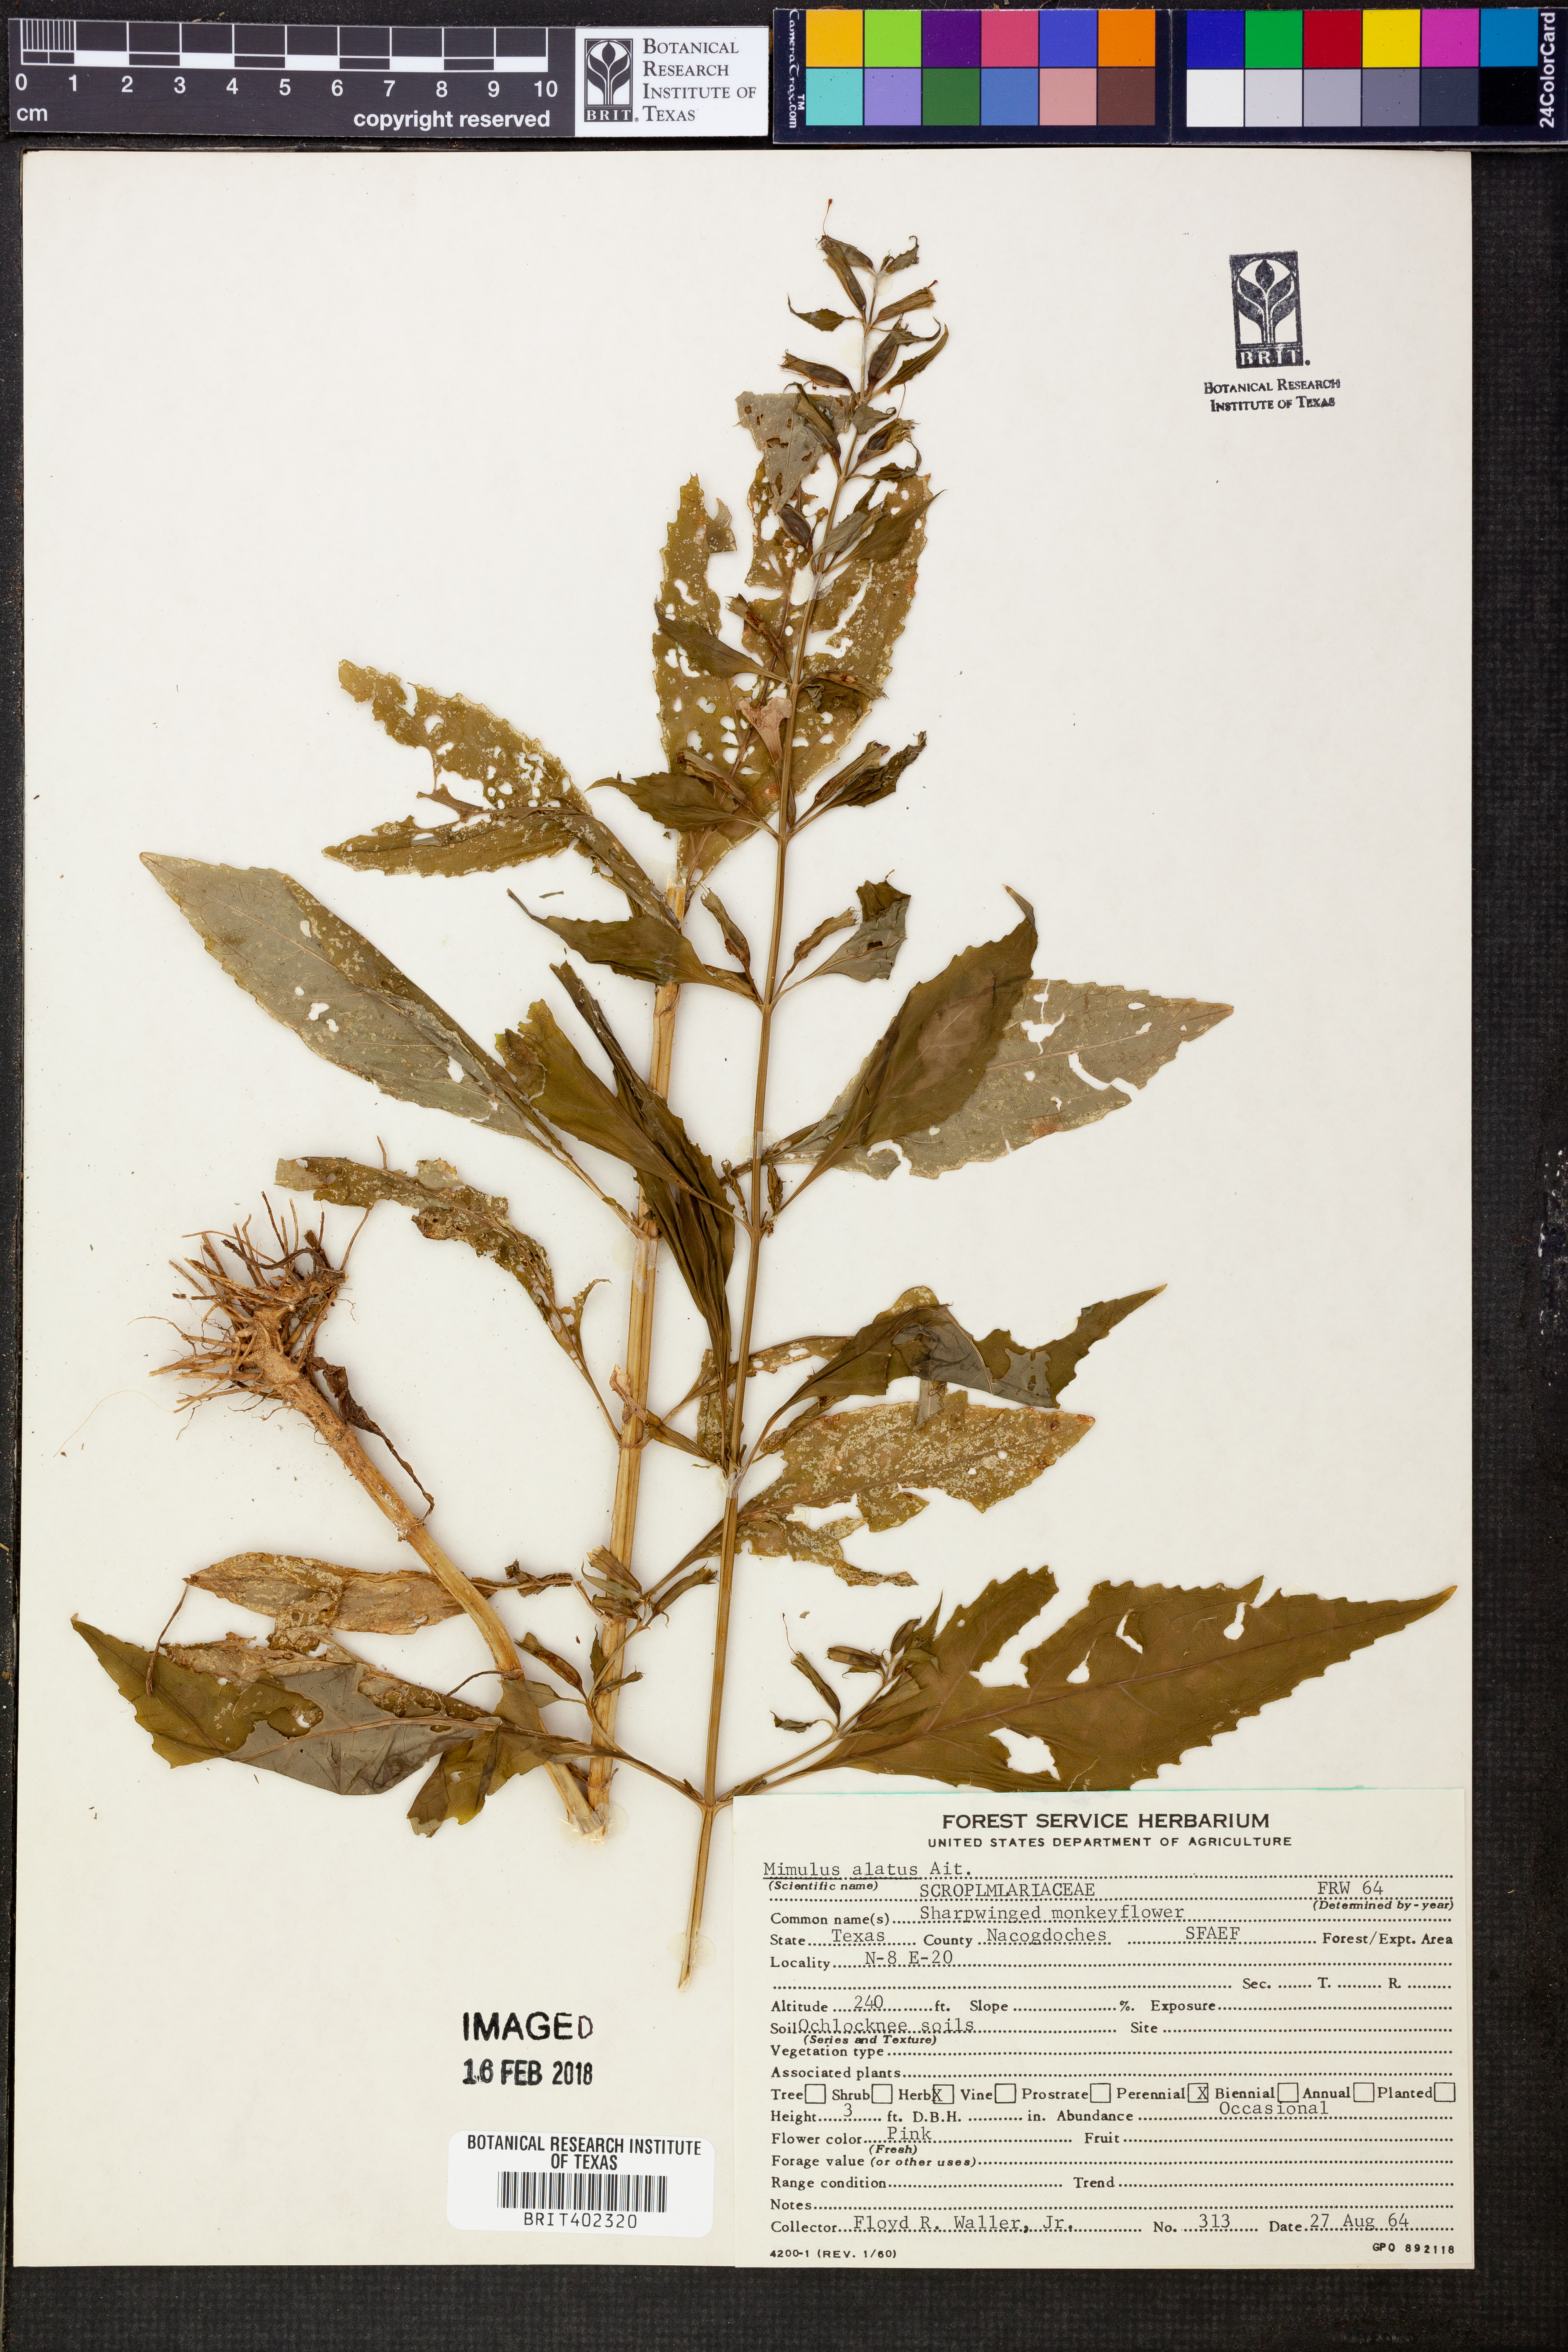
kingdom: Plantae
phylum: Tracheophyta
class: Magnoliopsida
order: Lamiales
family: Phrymaceae
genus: Mimulus
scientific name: Mimulus alatus
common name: Sharp-wing monkey-flower
